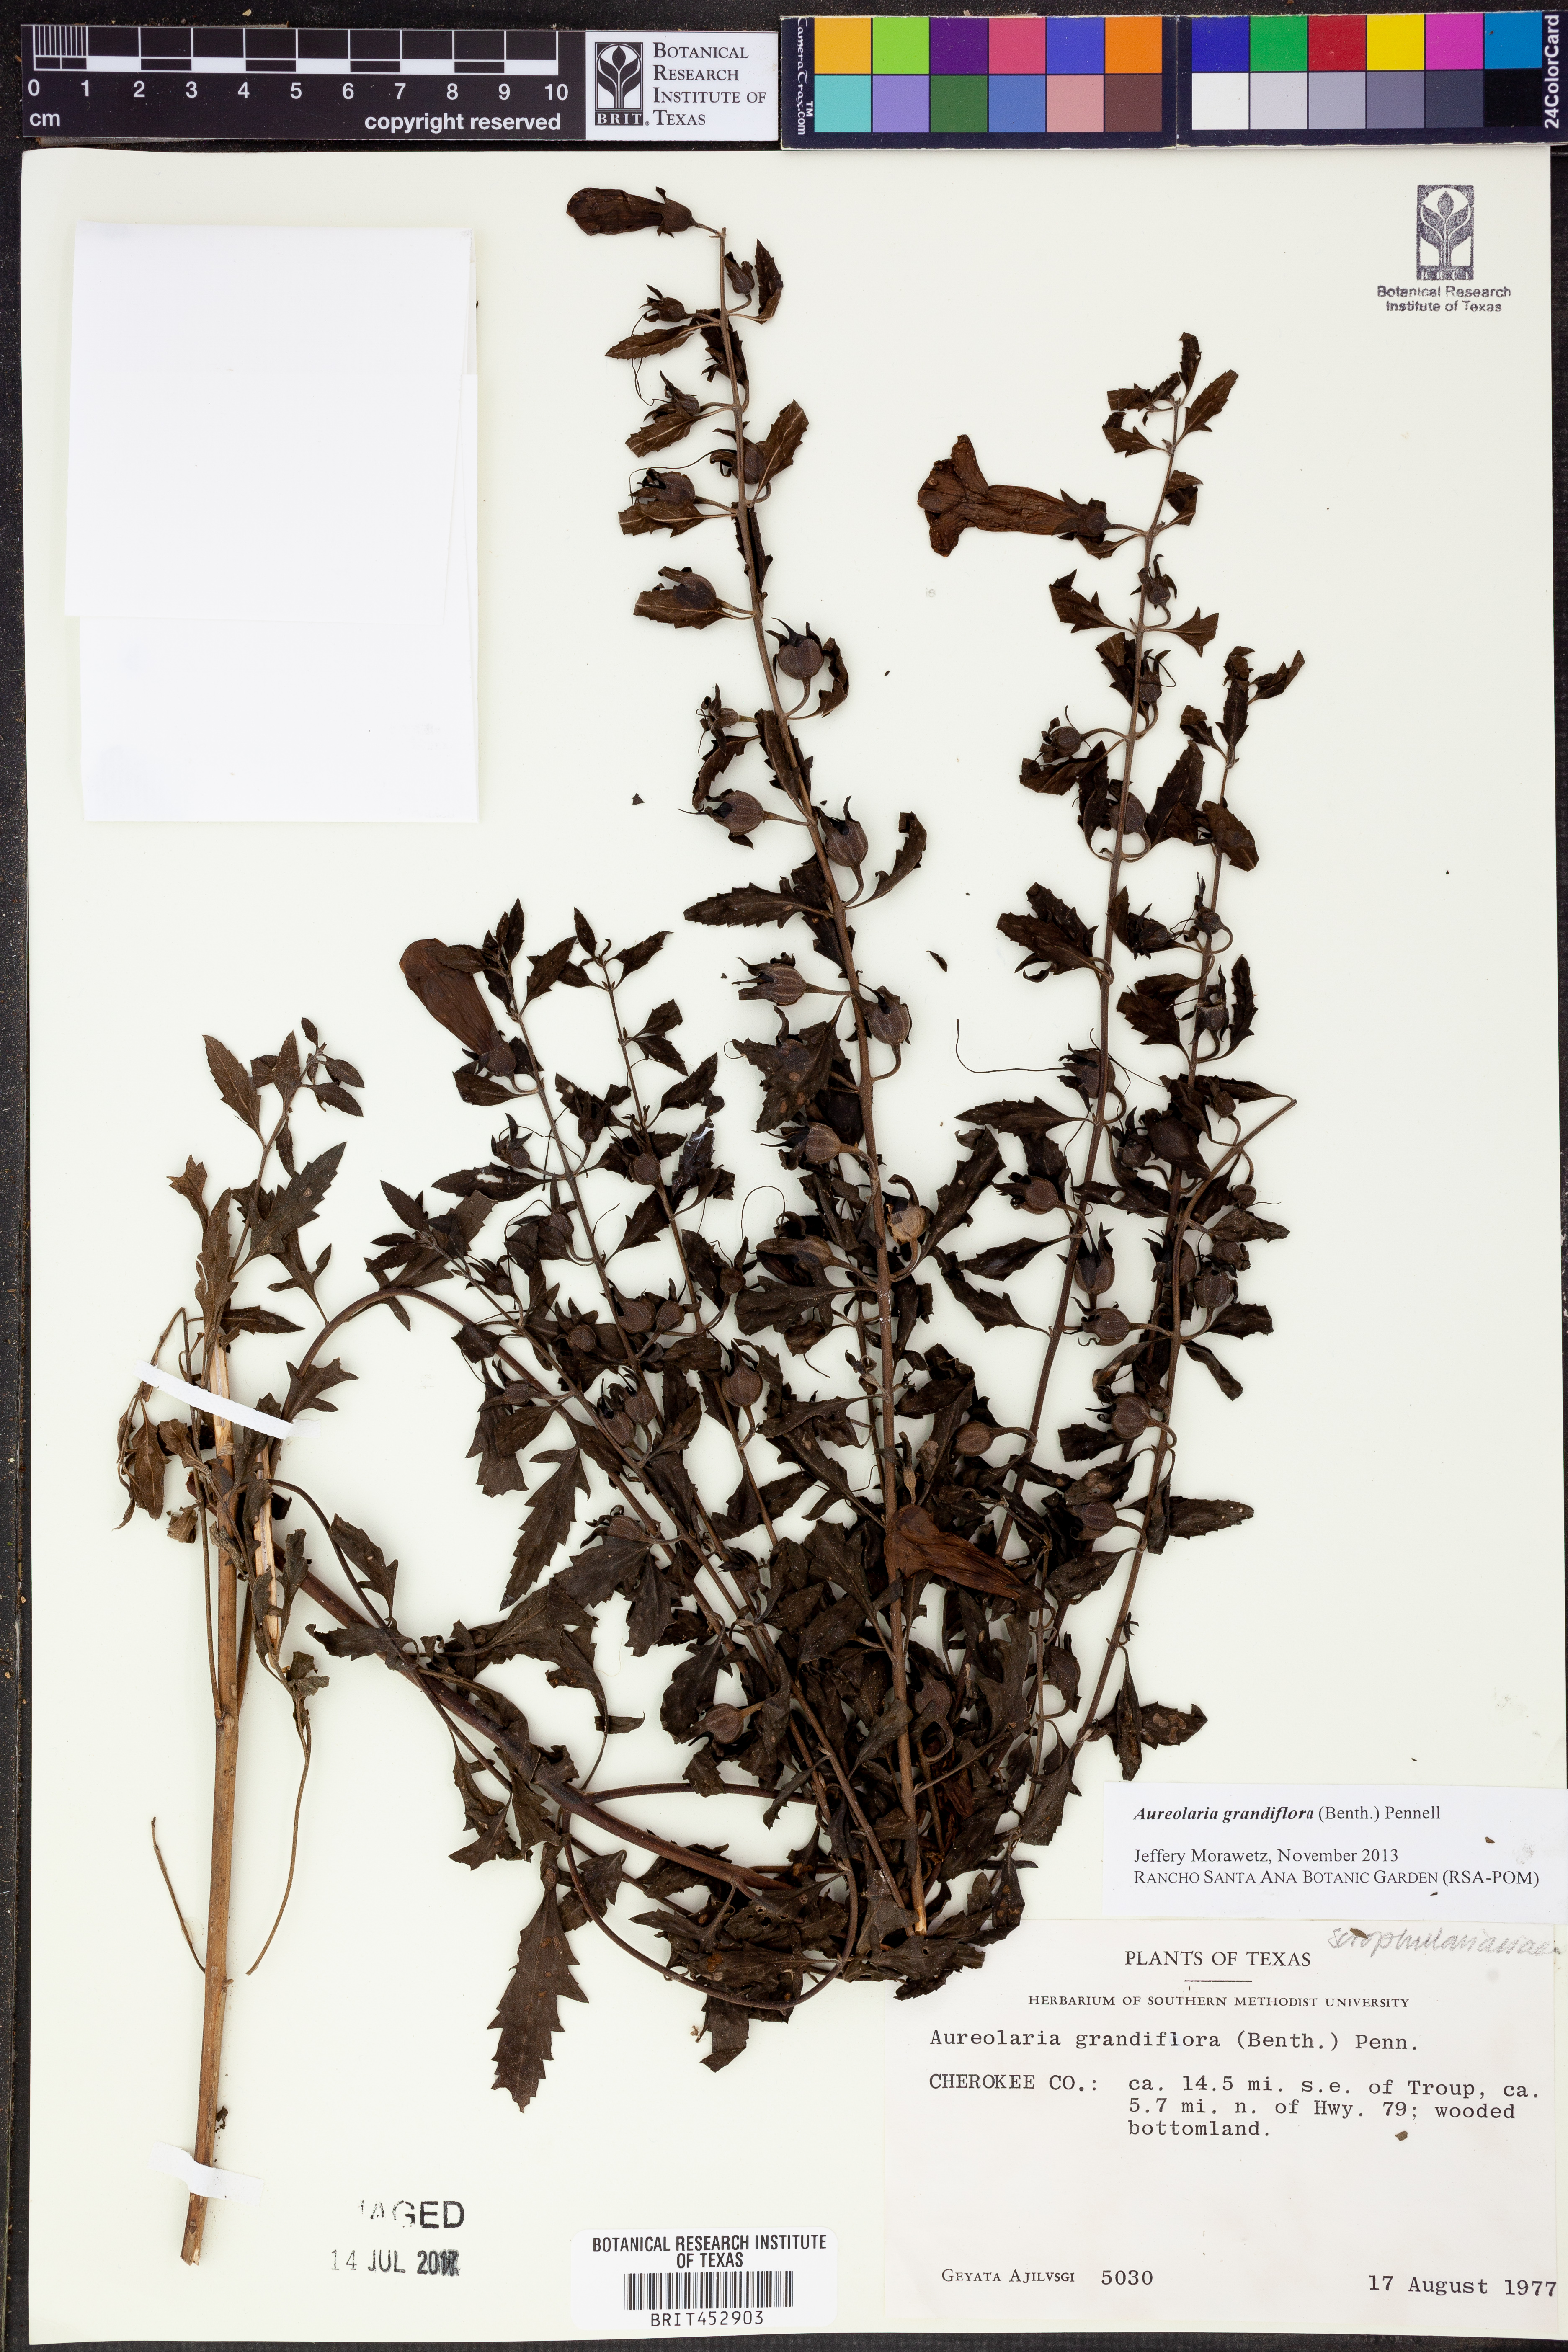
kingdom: Plantae
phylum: Tracheophyta
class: Magnoliopsida
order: Lamiales
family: Orobanchaceae
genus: Aureolaria
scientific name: Aureolaria grandiflora
